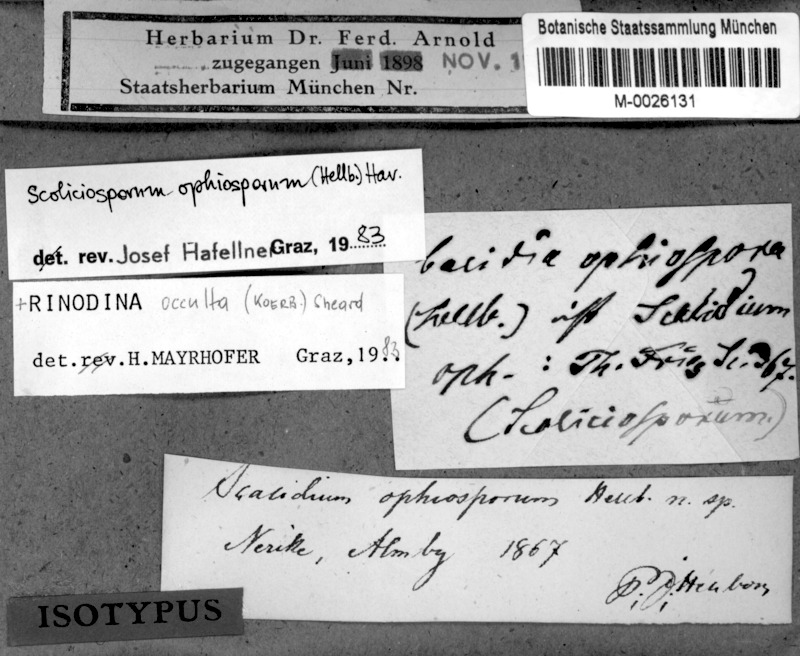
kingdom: Fungi
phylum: Ascomycota
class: Lecanoromycetes
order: Caliciales
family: Physciaceae
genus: Rinodina
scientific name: Rinodina occulta
